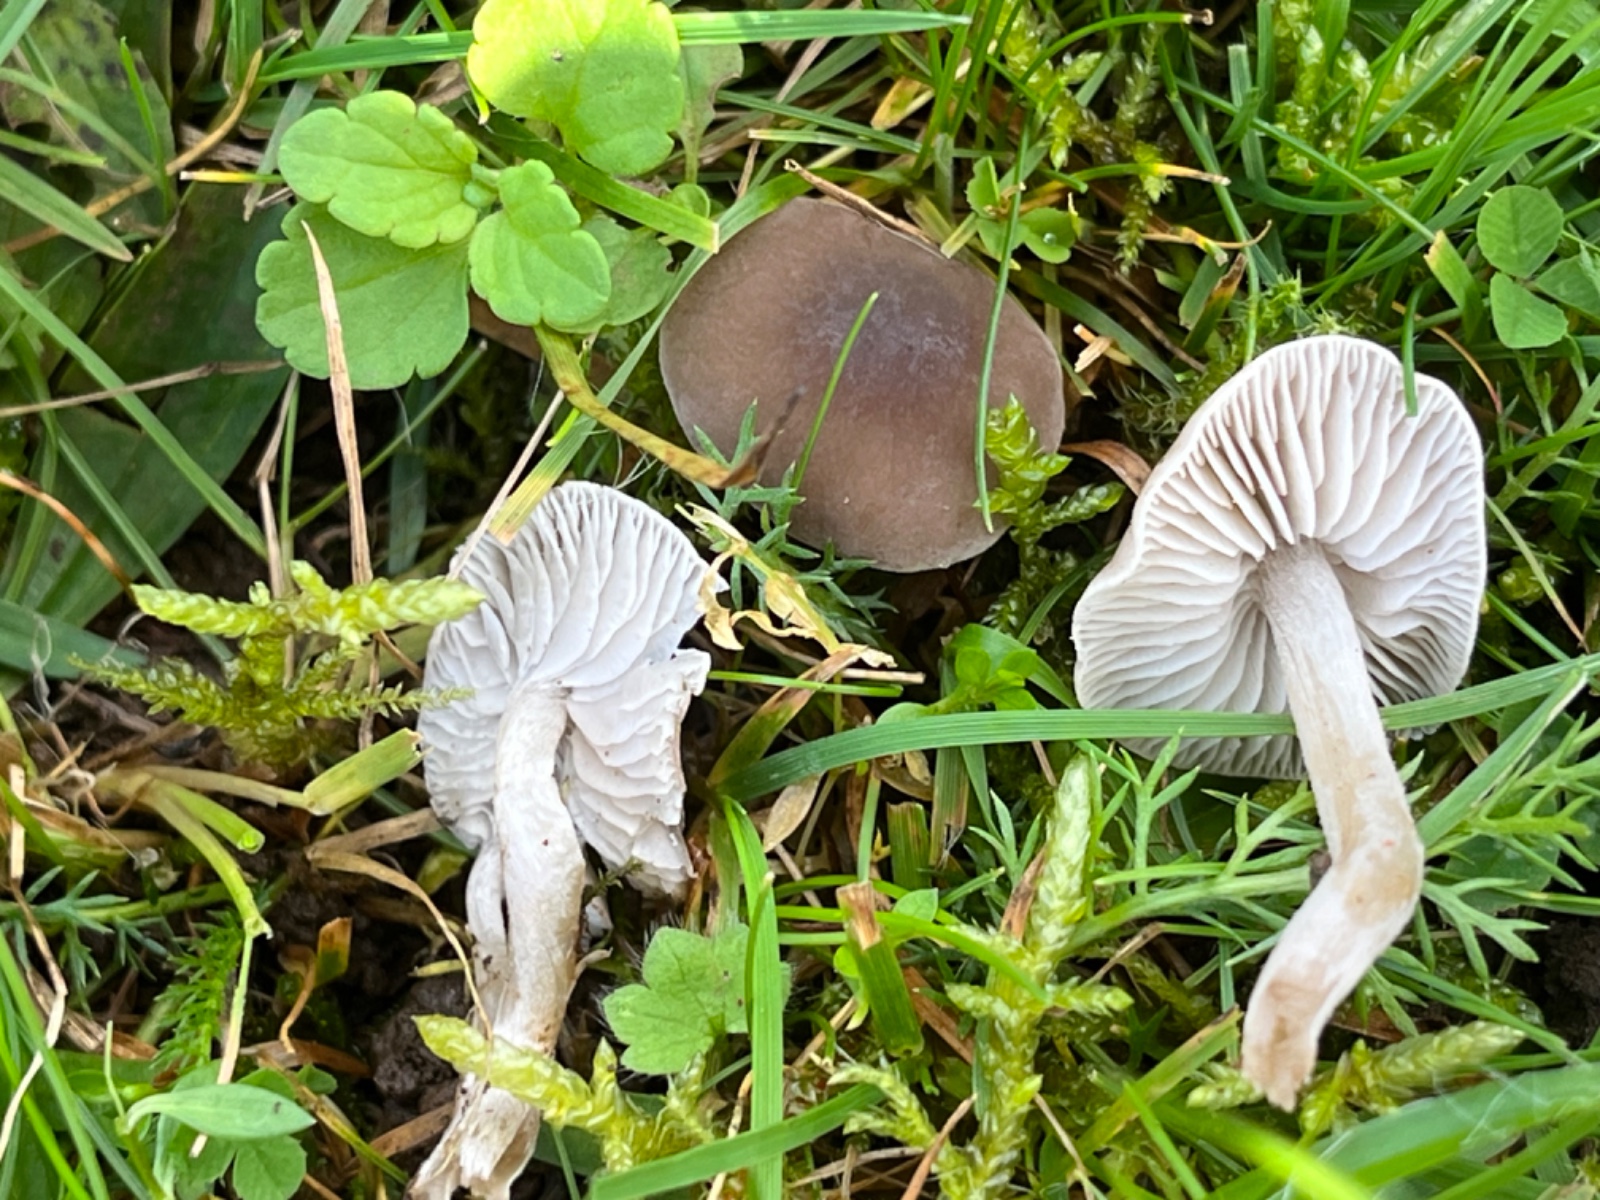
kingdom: Fungi
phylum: Basidiomycota
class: Agaricomycetes
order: Agaricales
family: Tricholomataceae
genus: Dermoloma
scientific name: Dermoloma cuneifolium
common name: eng-nonnehat
